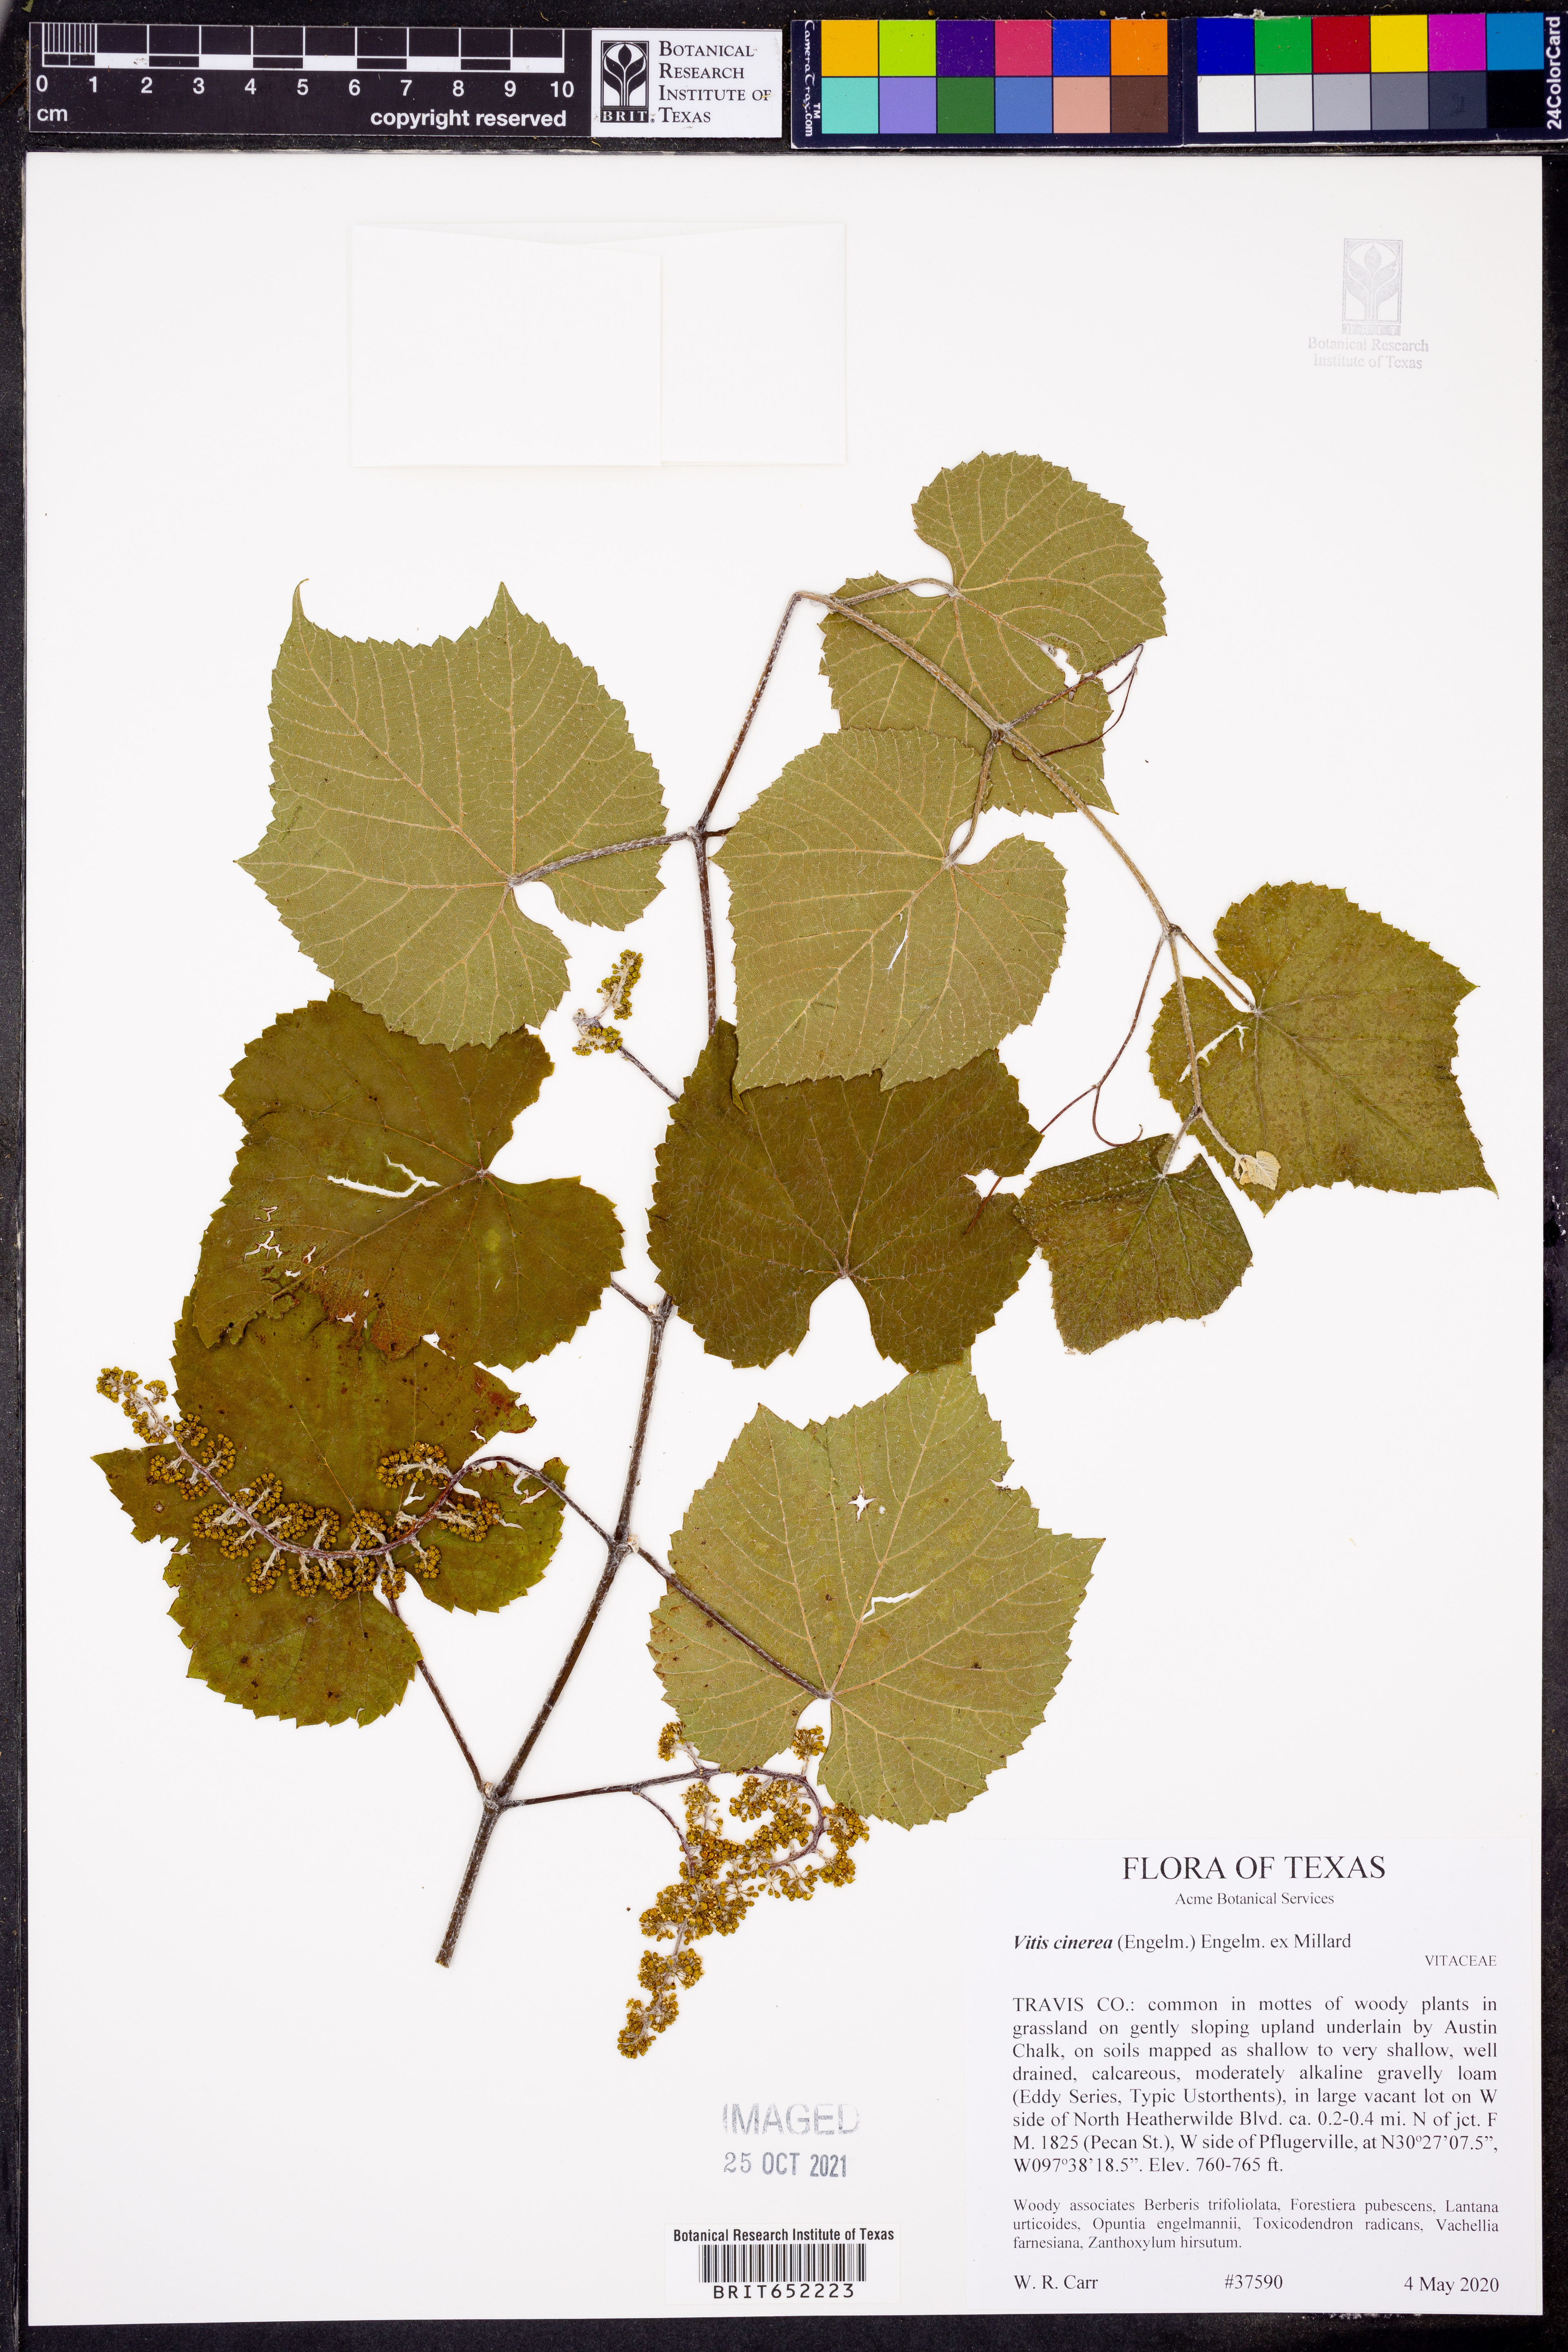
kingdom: Plantae
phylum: Tracheophyta
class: Magnoliopsida
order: Vitales
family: Vitaceae
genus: Vitis
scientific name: Vitis cinerea
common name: Ashy grape
